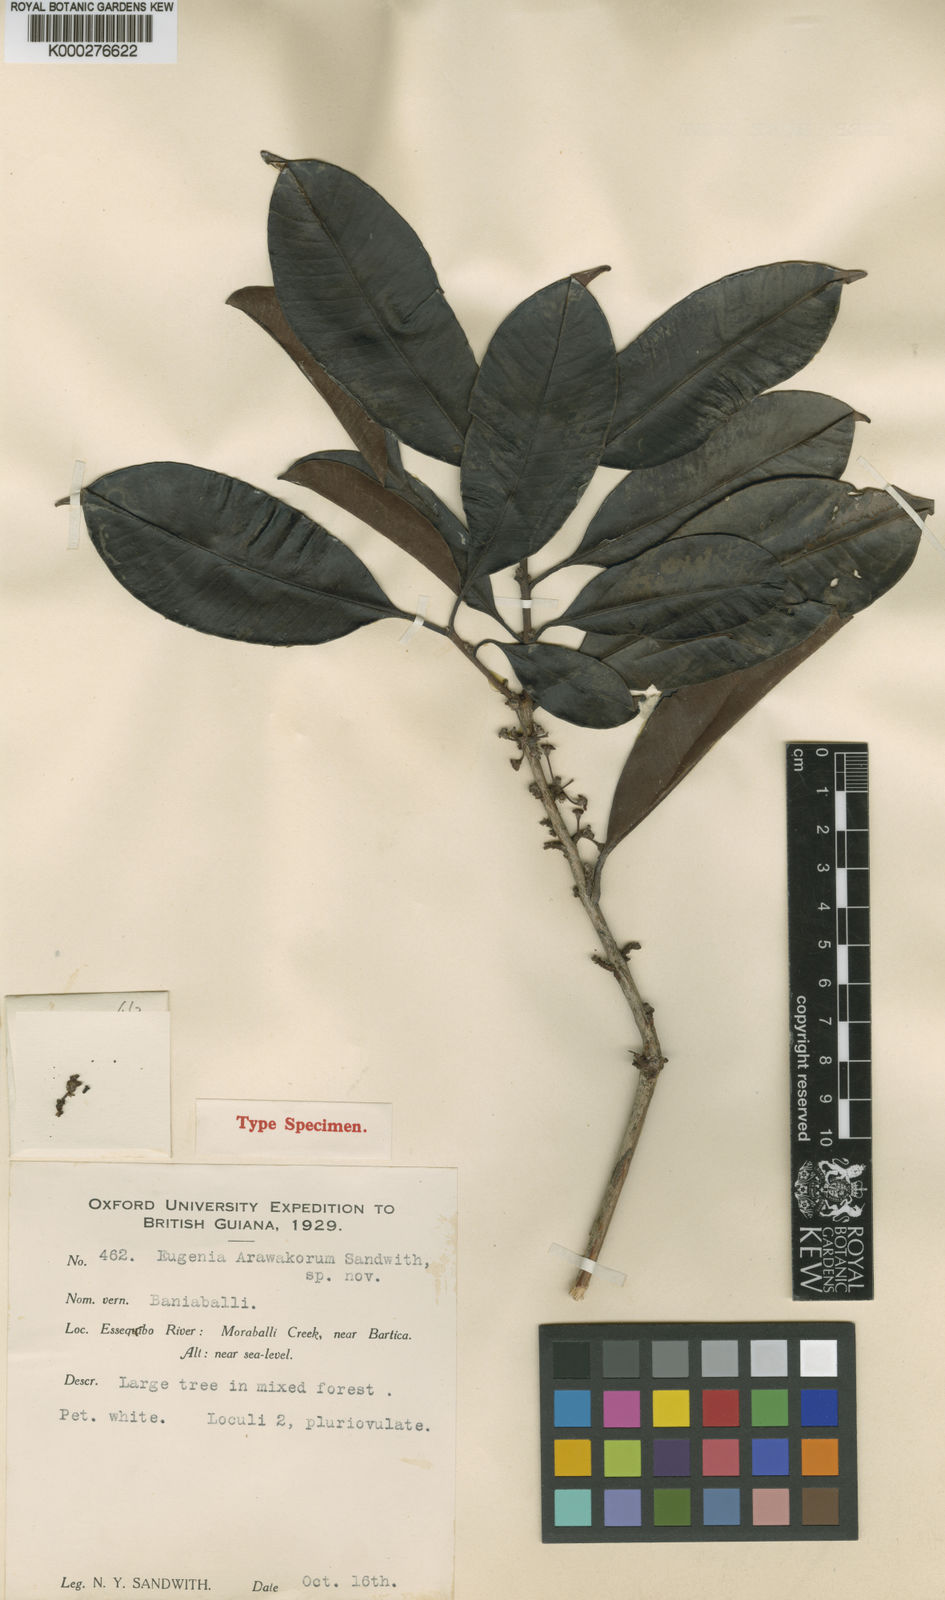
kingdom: Plantae
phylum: Tracheophyta
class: Magnoliopsida
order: Myrtales
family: Myrtaceae
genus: Eugenia
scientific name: Eugenia arawakorum
